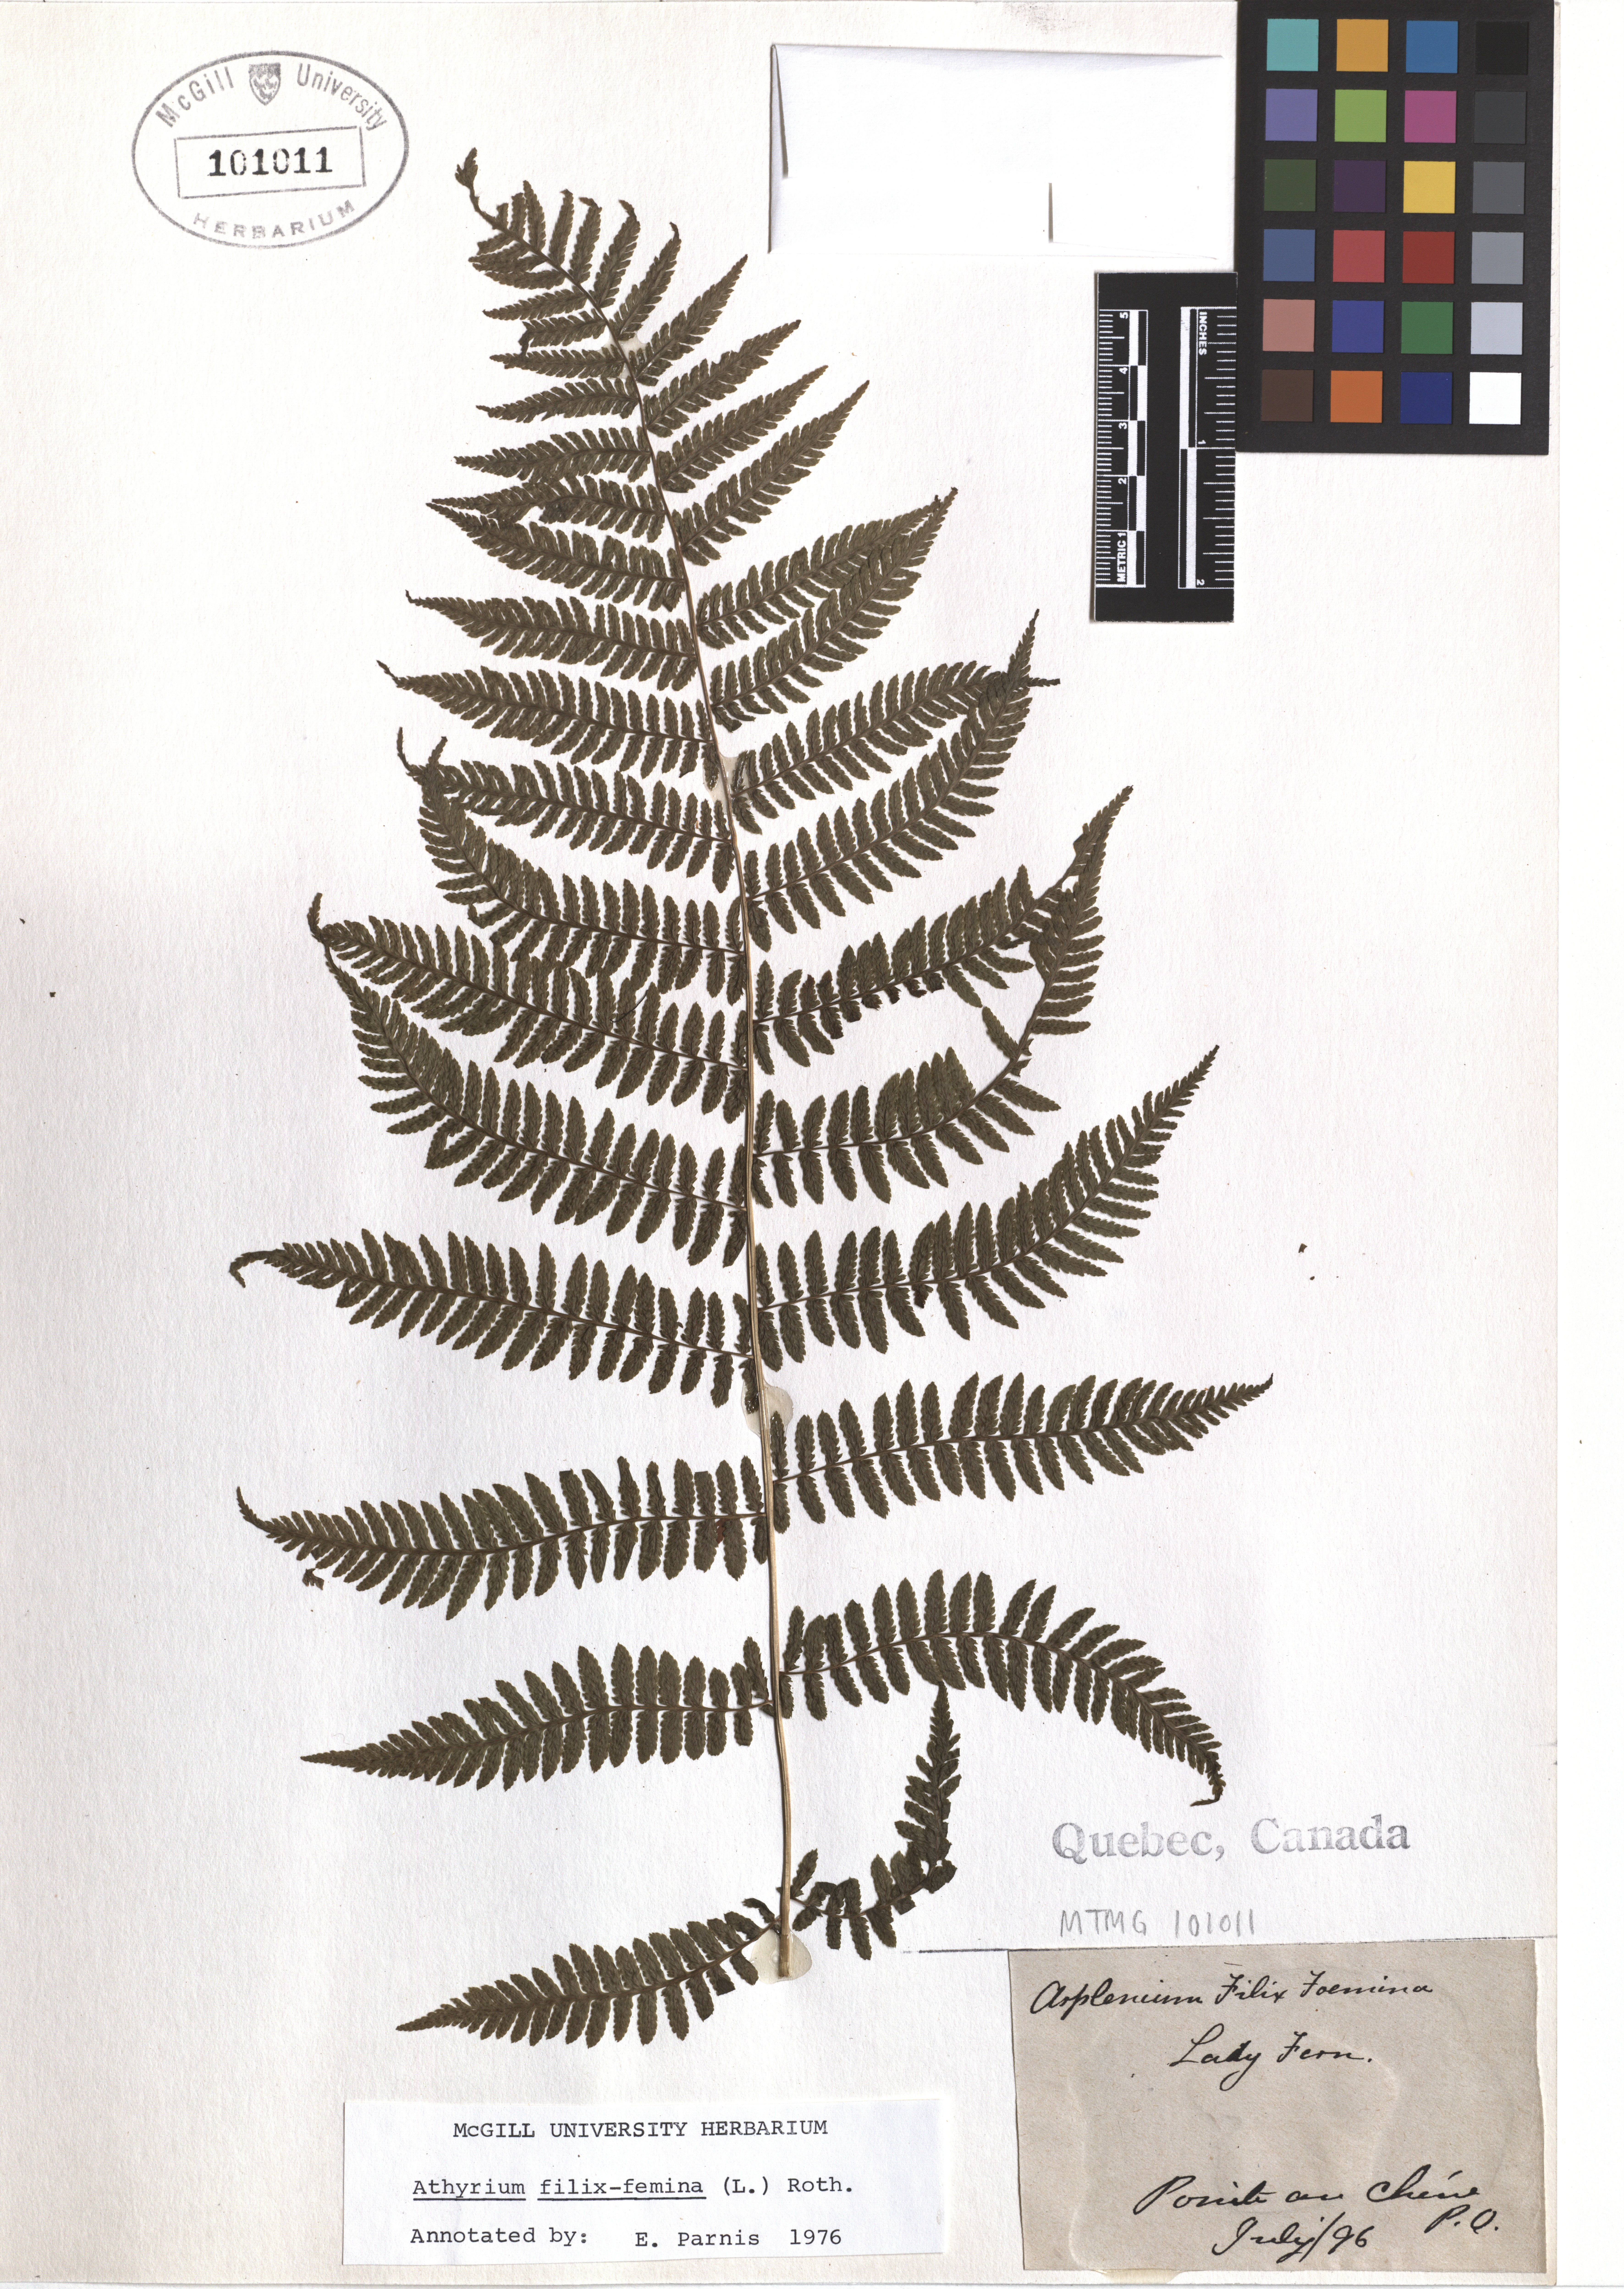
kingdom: Plantae
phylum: Tracheophyta
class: Polypodiopsida
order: Polypodiales
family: Athyriaceae
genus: Athyrium
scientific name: Athyrium filix-femina
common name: Lady fern
